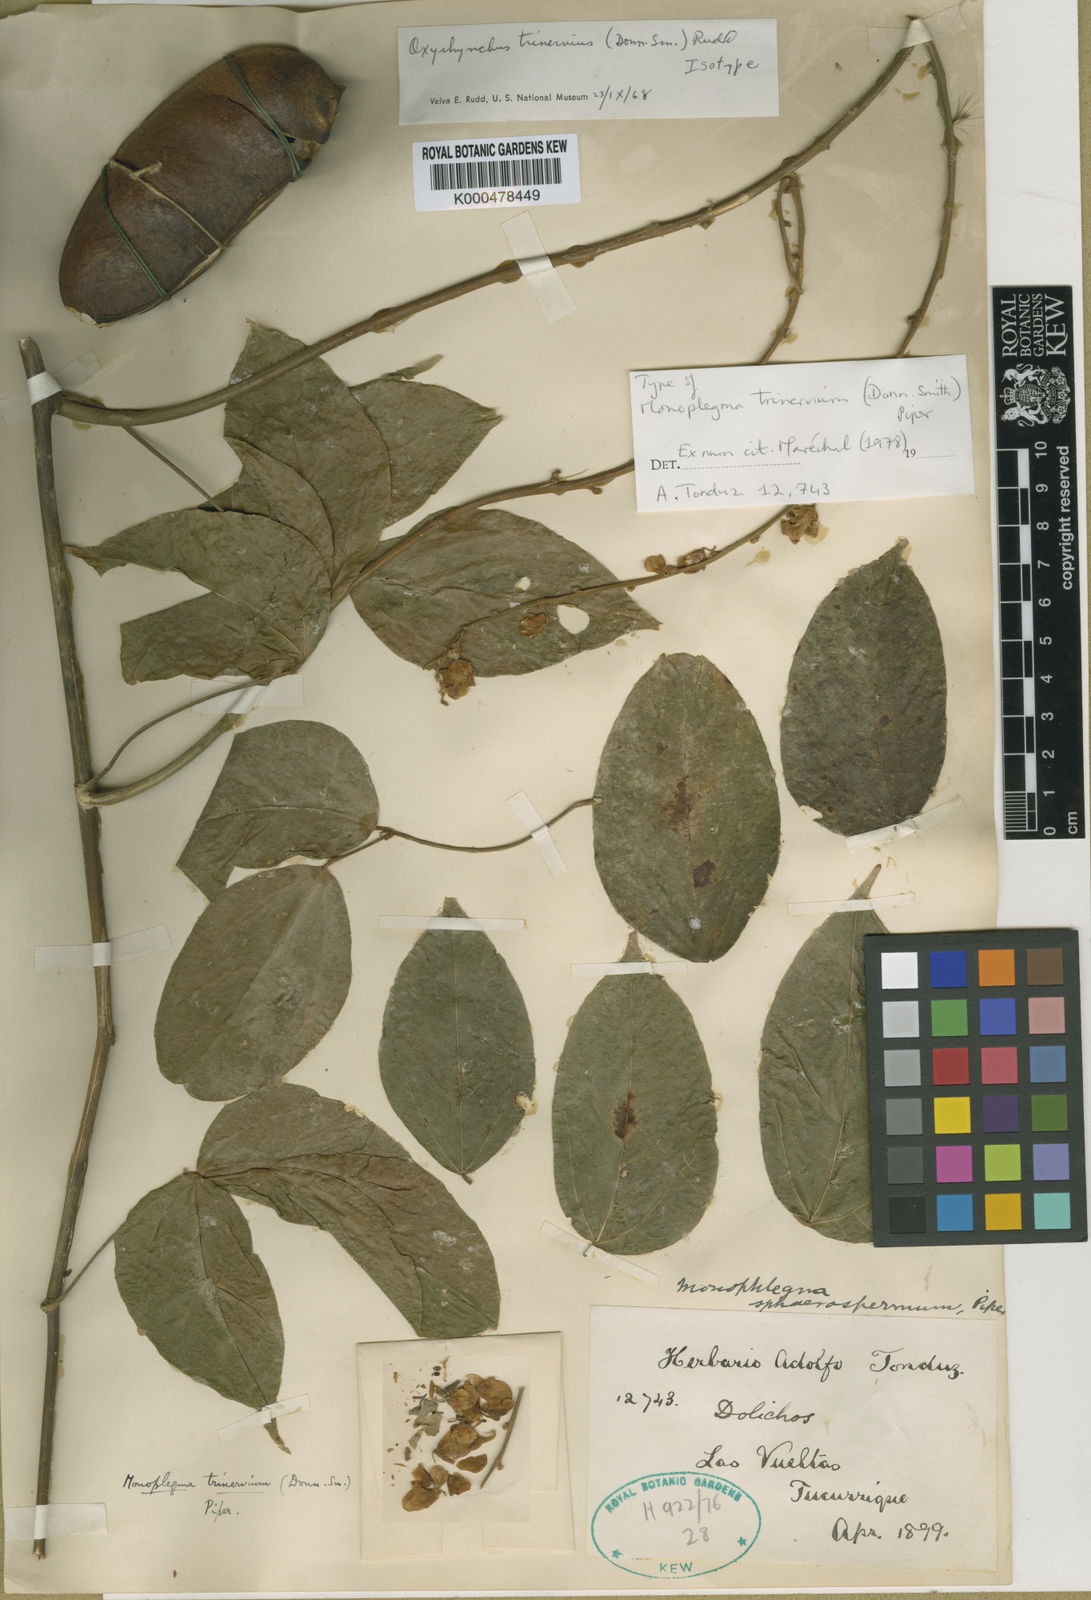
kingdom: Plantae
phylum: Tracheophyta
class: Magnoliopsida
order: Fabales
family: Fabaceae
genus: Oxyrhynchus
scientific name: Oxyrhynchus trinervius
